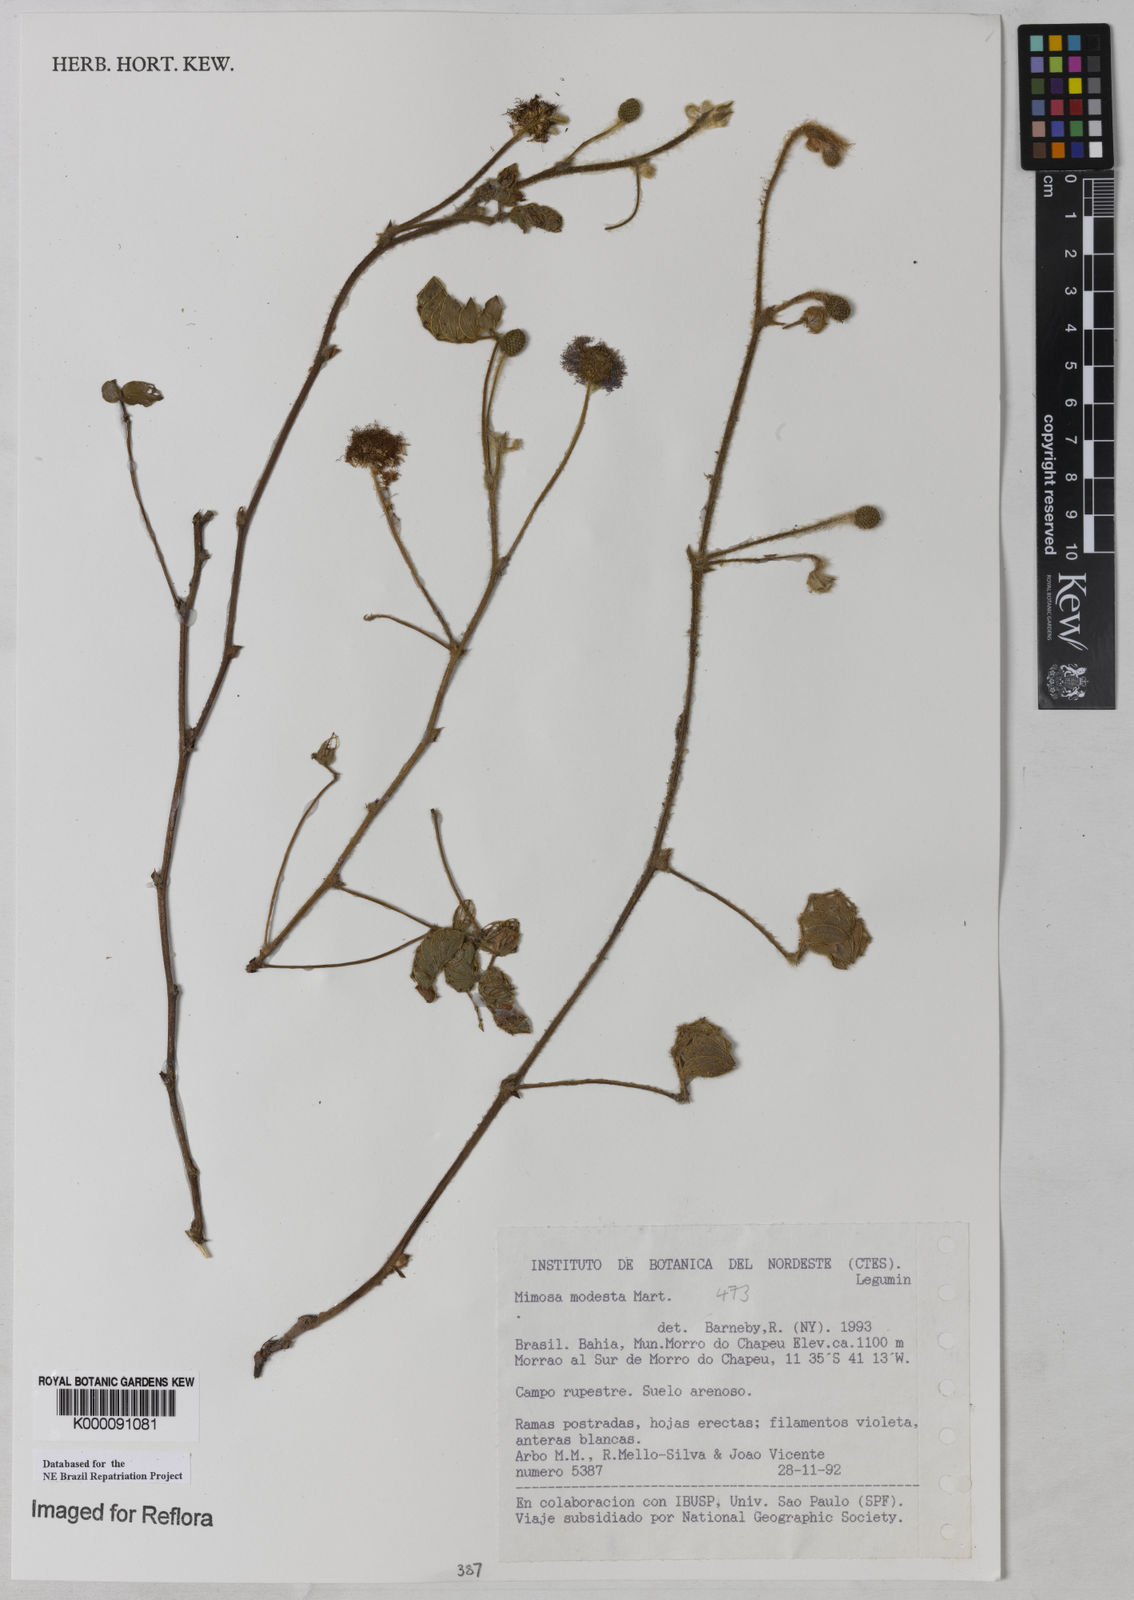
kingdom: Plantae
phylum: Tracheophyta
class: Magnoliopsida
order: Fabales
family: Fabaceae
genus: Mimosa
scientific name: Mimosa modesta
